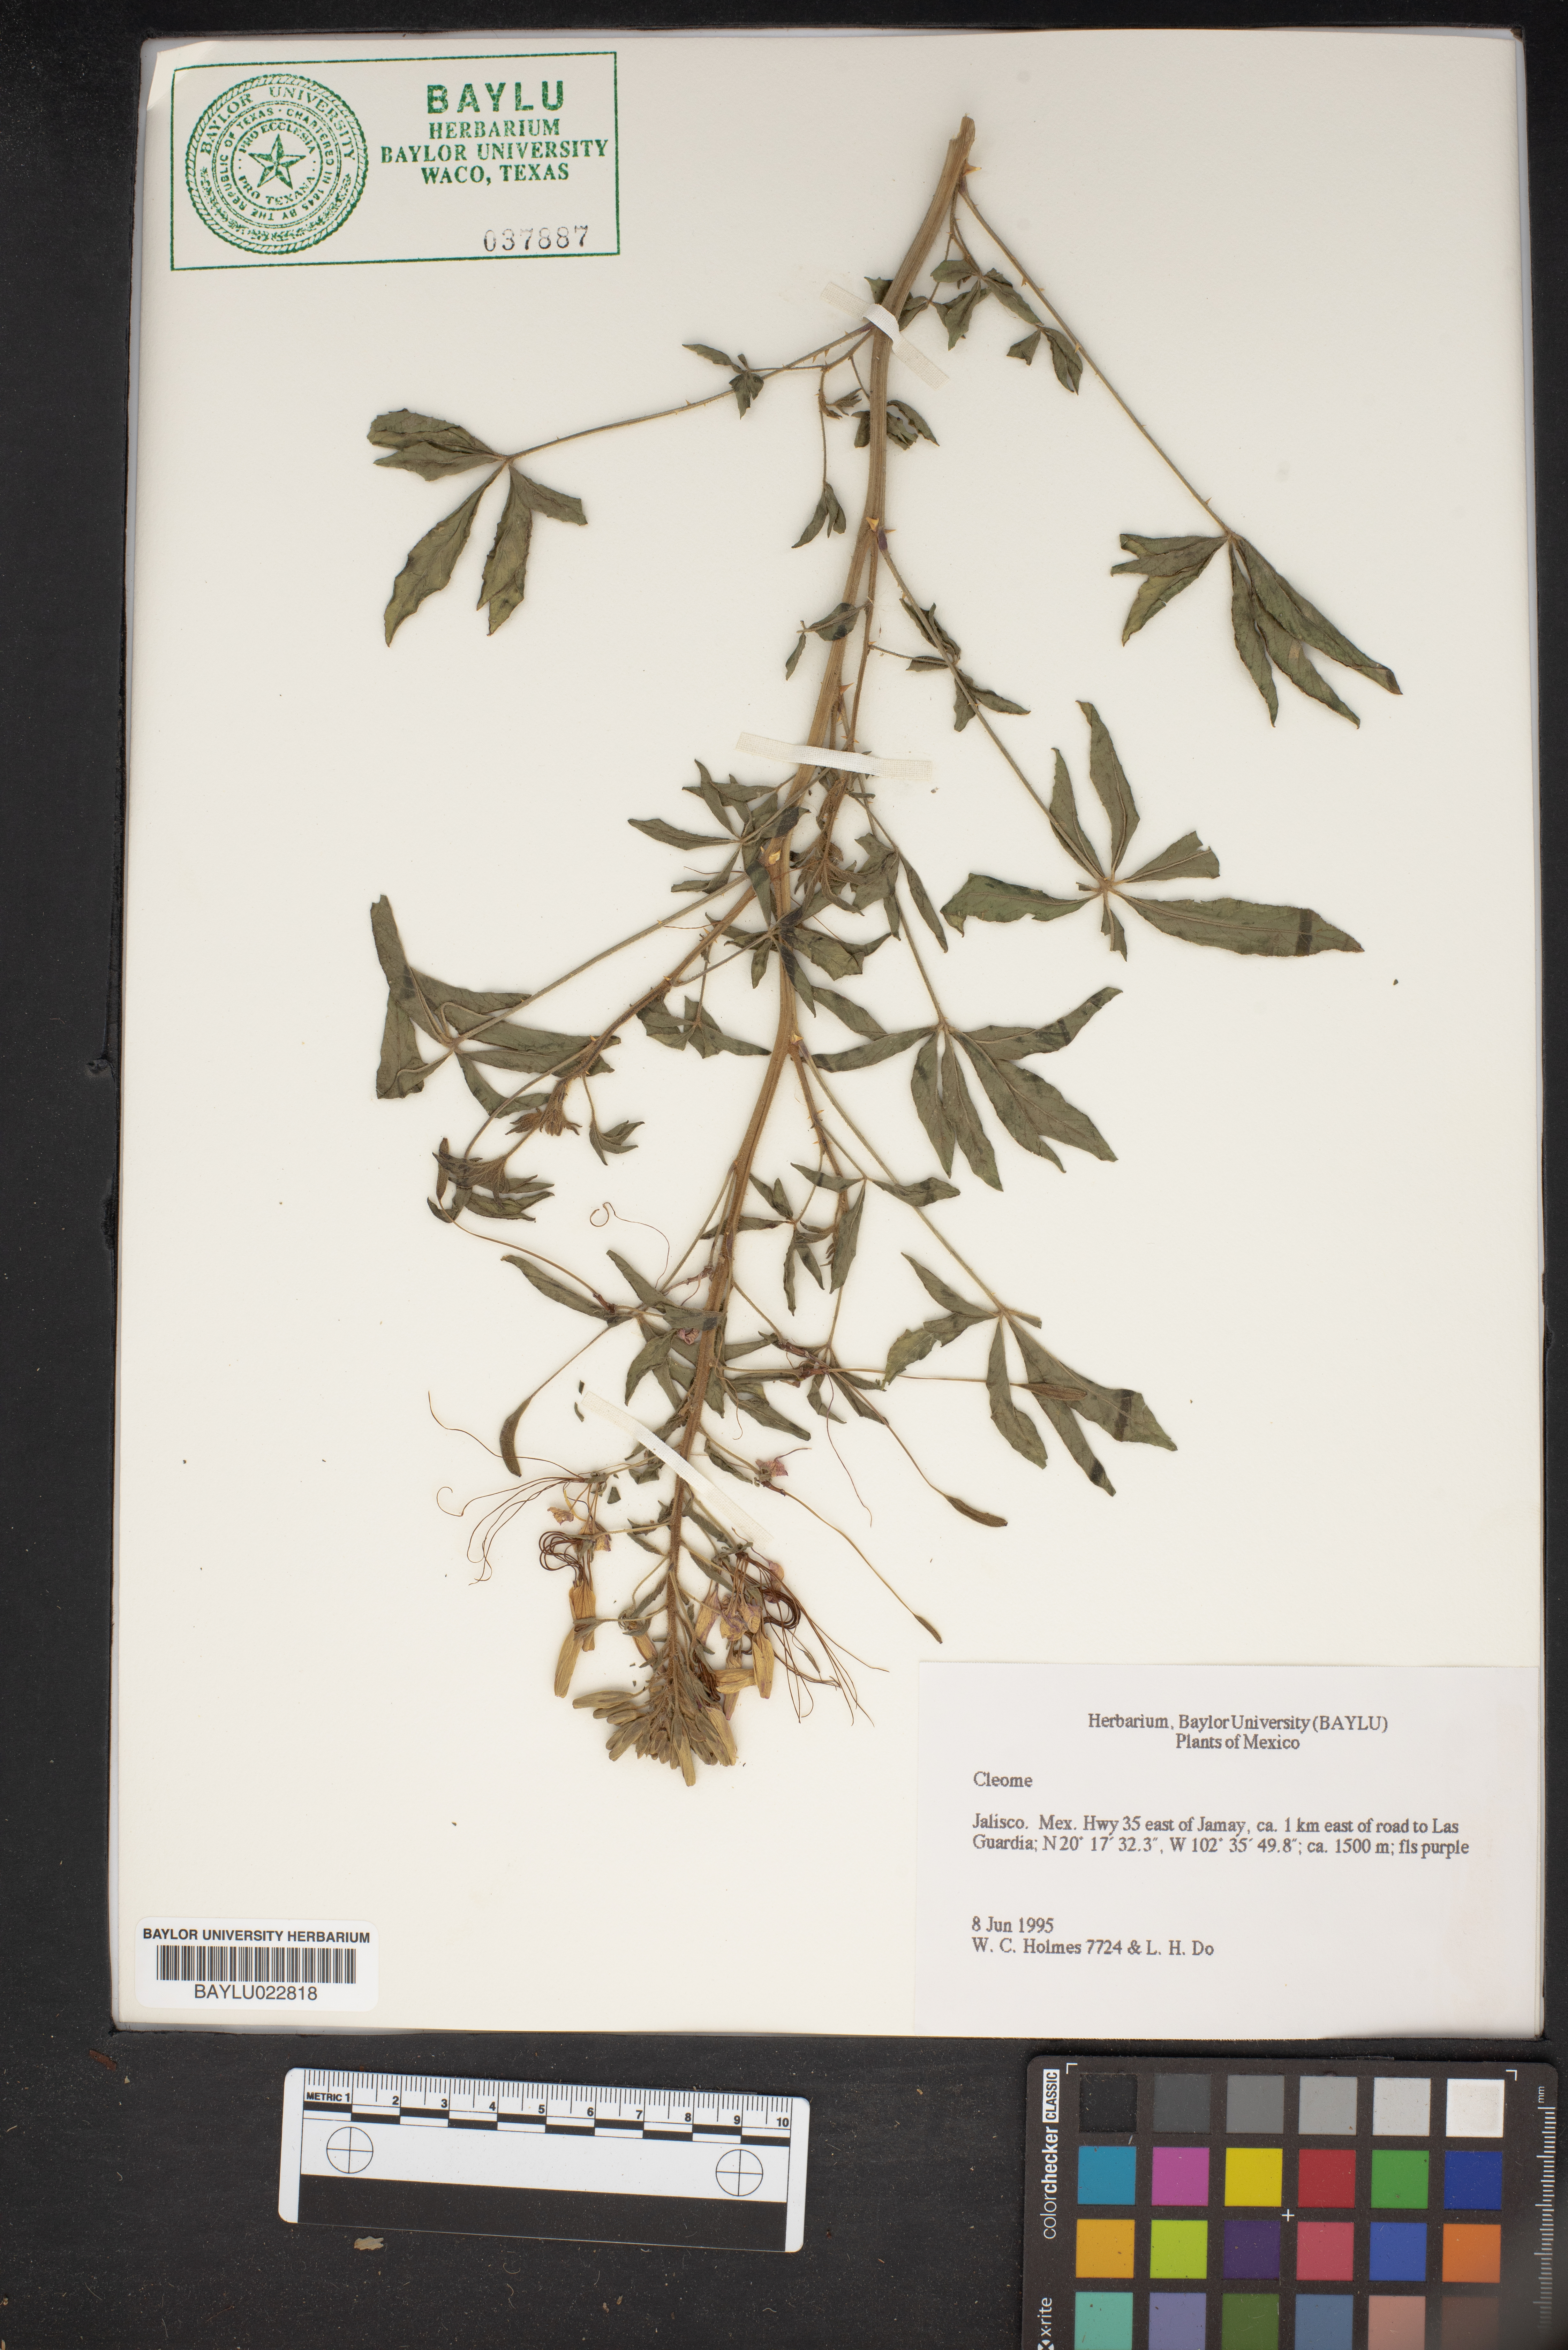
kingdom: Plantae
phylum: Tracheophyta
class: Magnoliopsida
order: Brassicales
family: Cleomaceae
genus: Cleome
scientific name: Cleome
